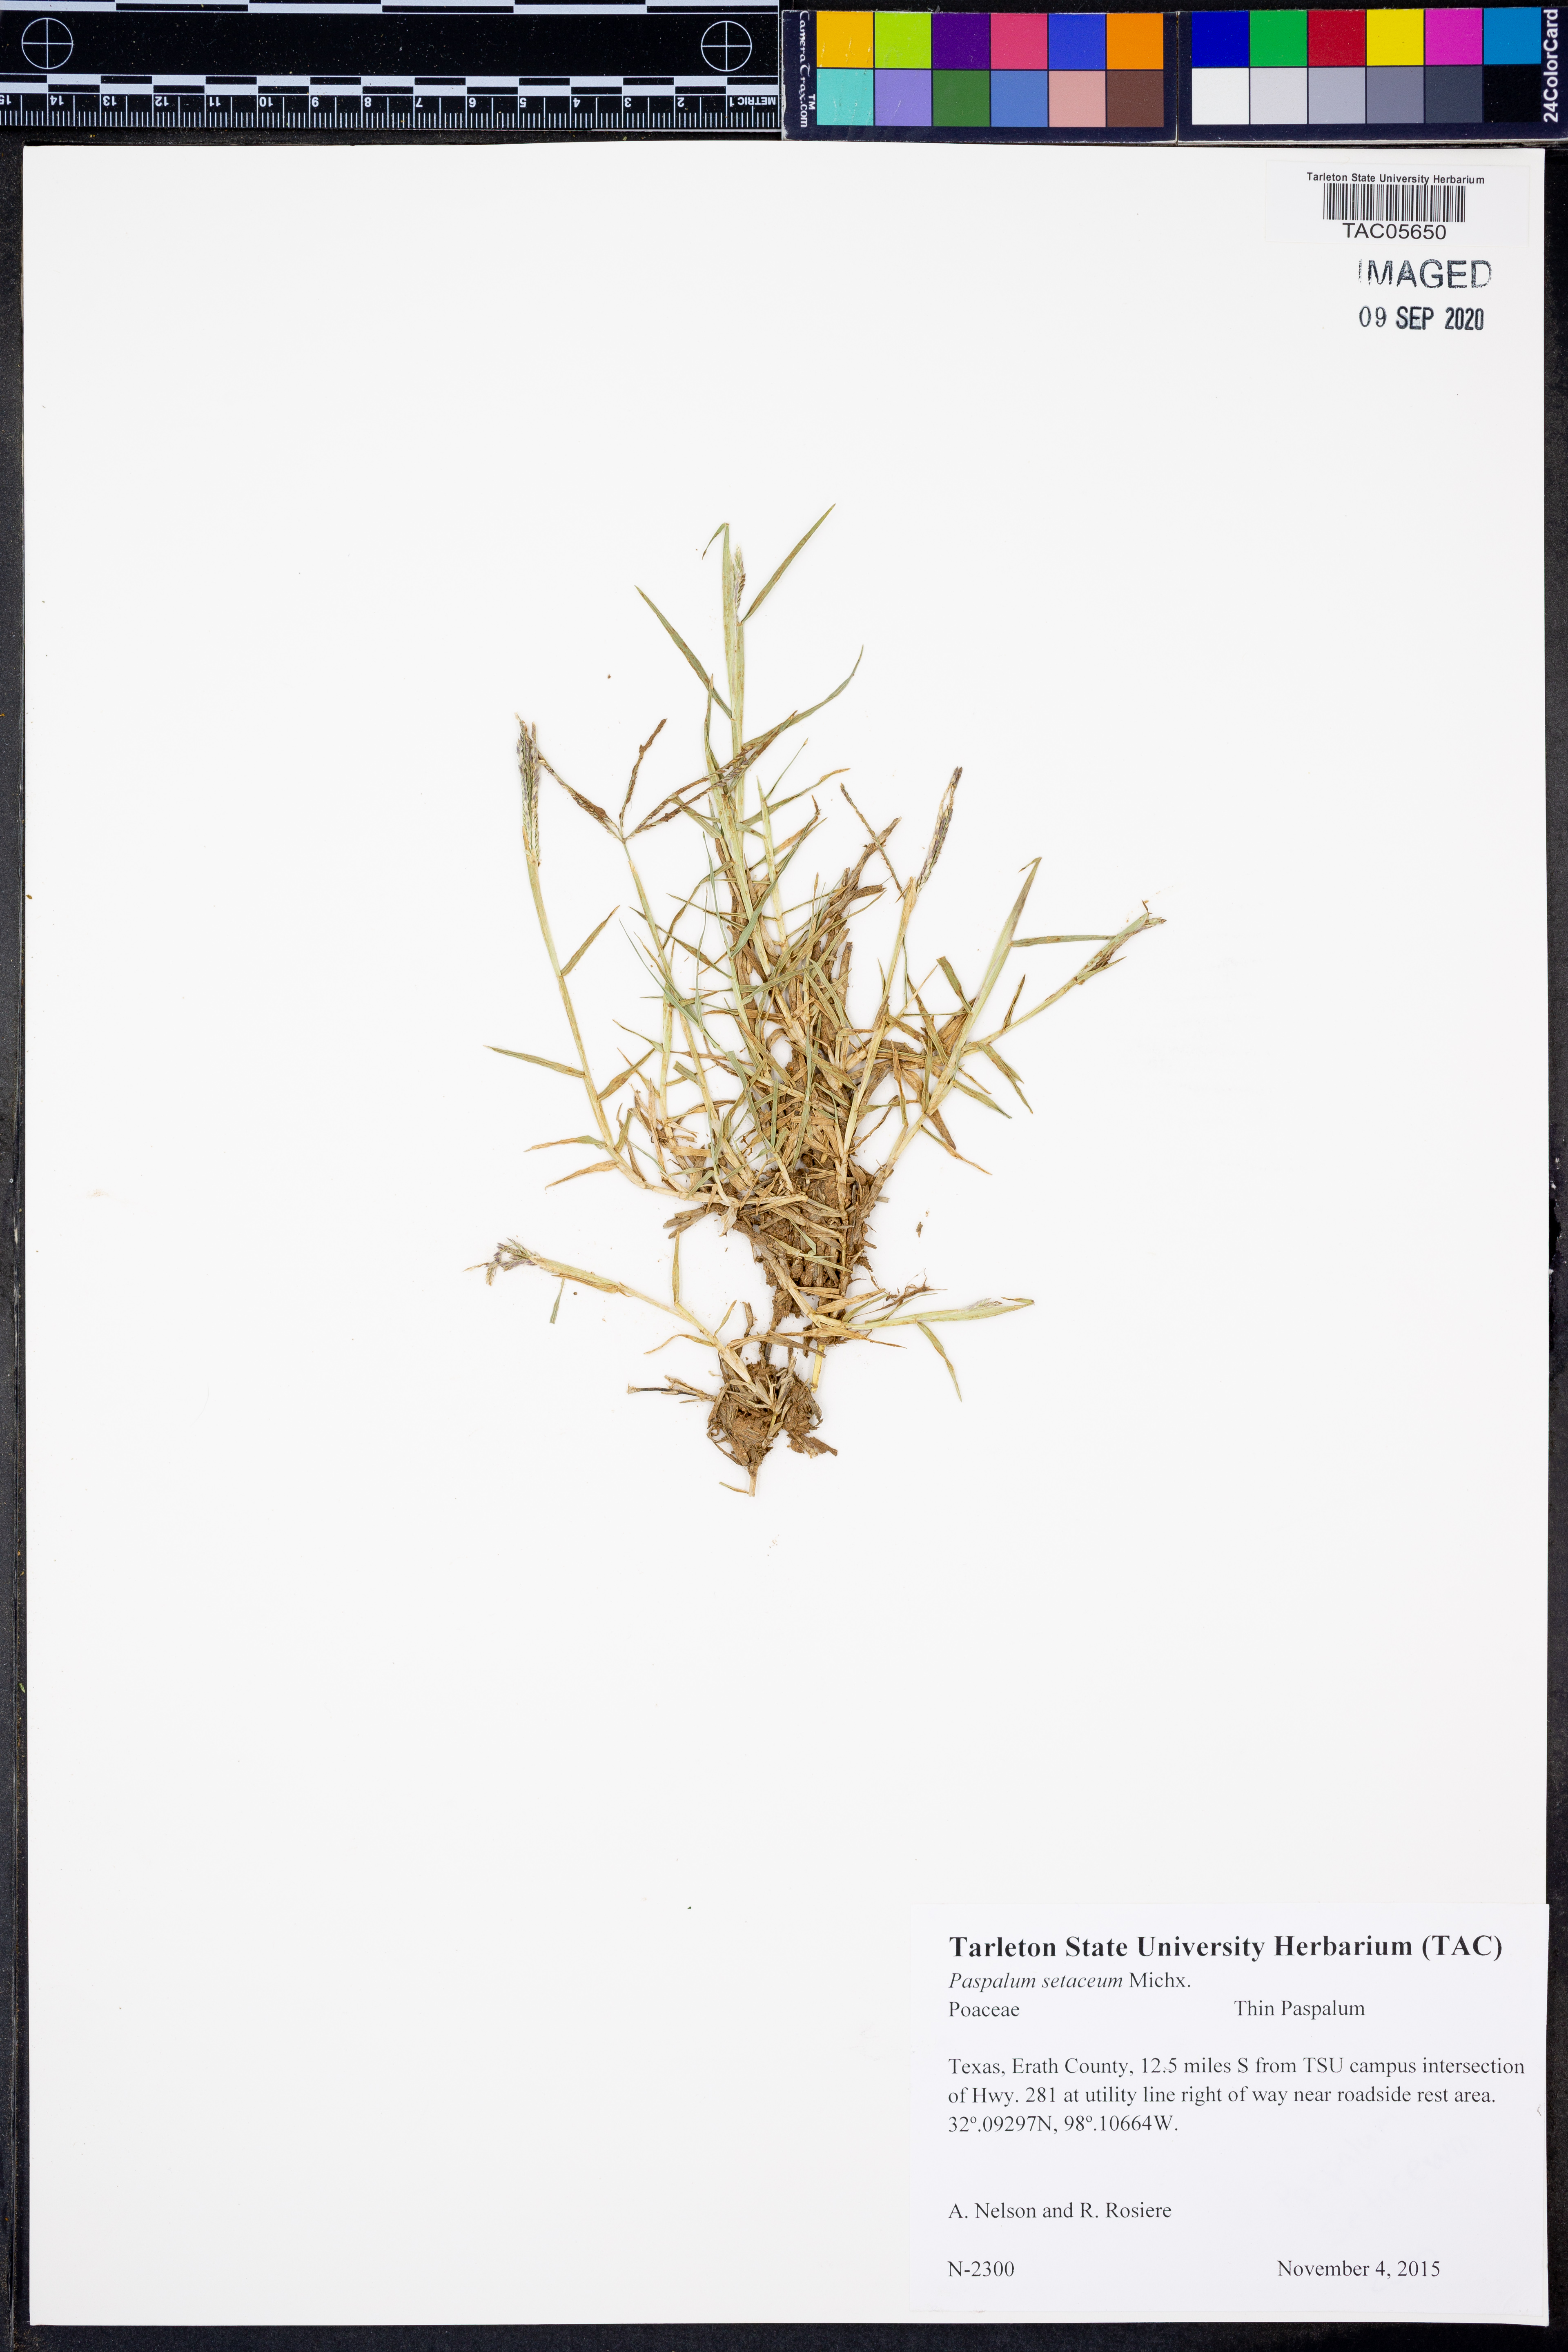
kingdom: Plantae
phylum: Tracheophyta
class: Liliopsida
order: Poales
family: Poaceae
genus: Paspalum
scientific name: Paspalum setaceum
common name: Slender paspalum
